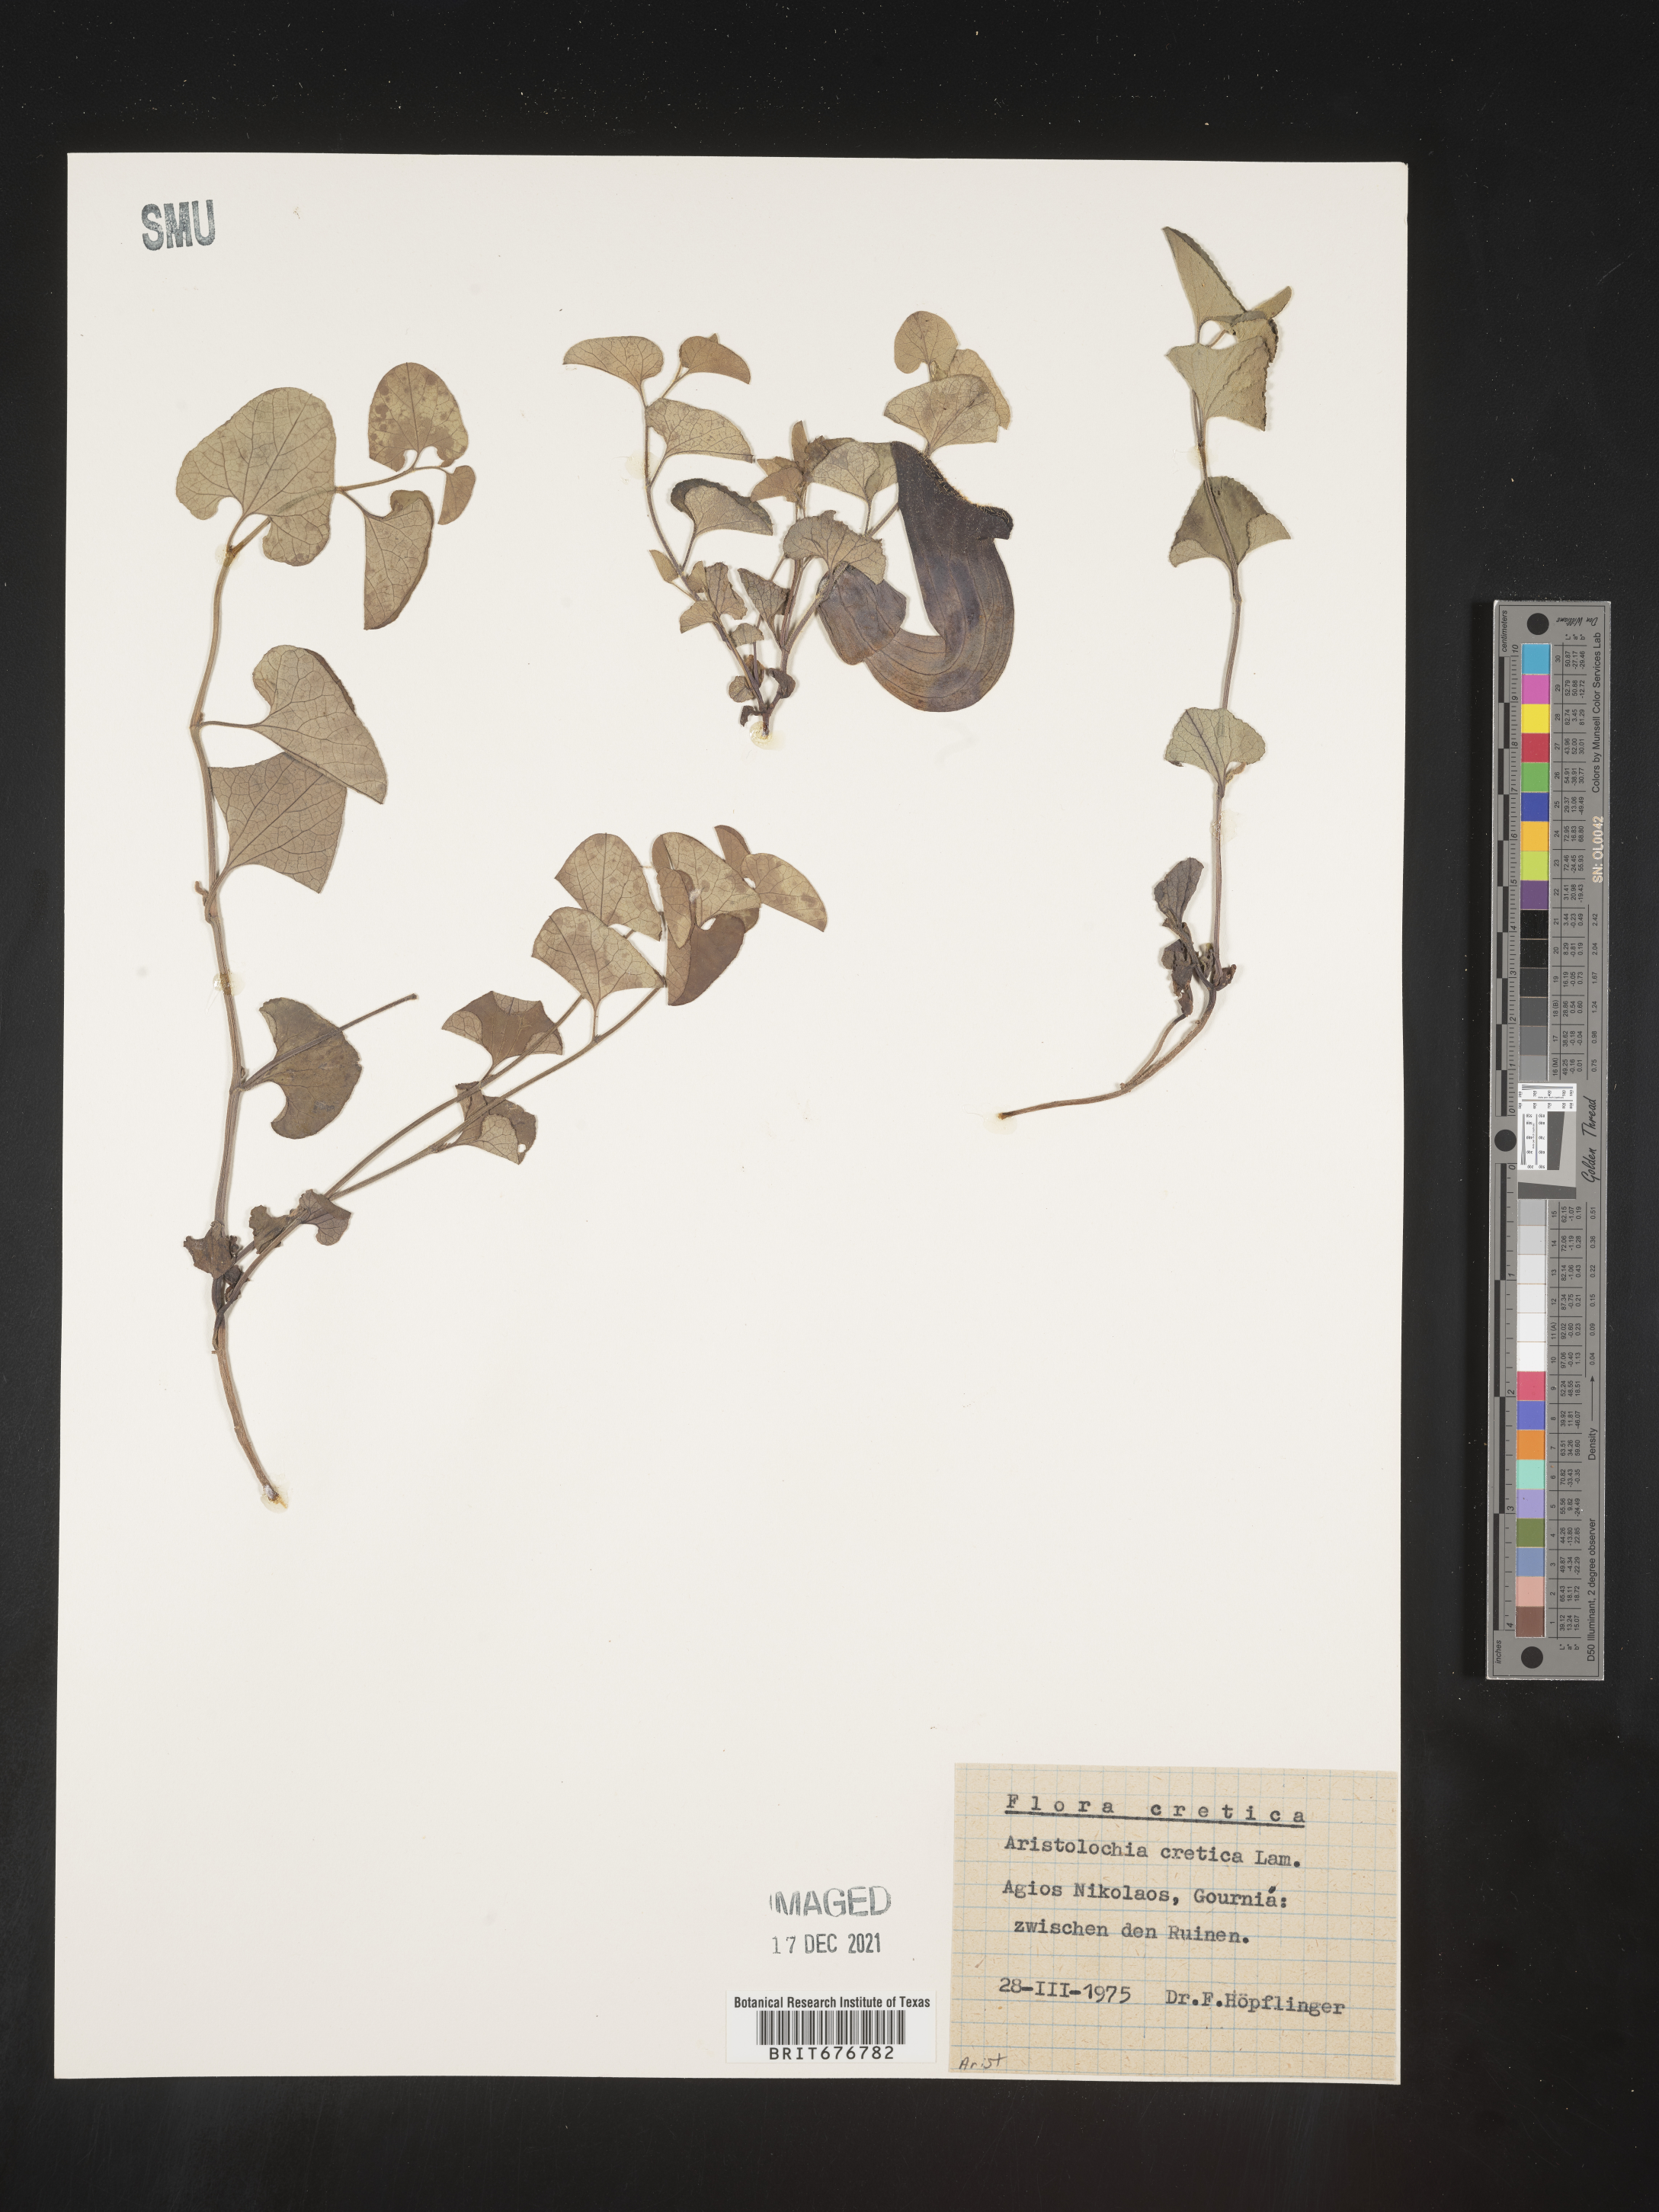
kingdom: Plantae
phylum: Tracheophyta
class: Magnoliopsida
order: Piperales
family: Aristolochiaceae
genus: Aristolochia
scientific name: Aristolochia
